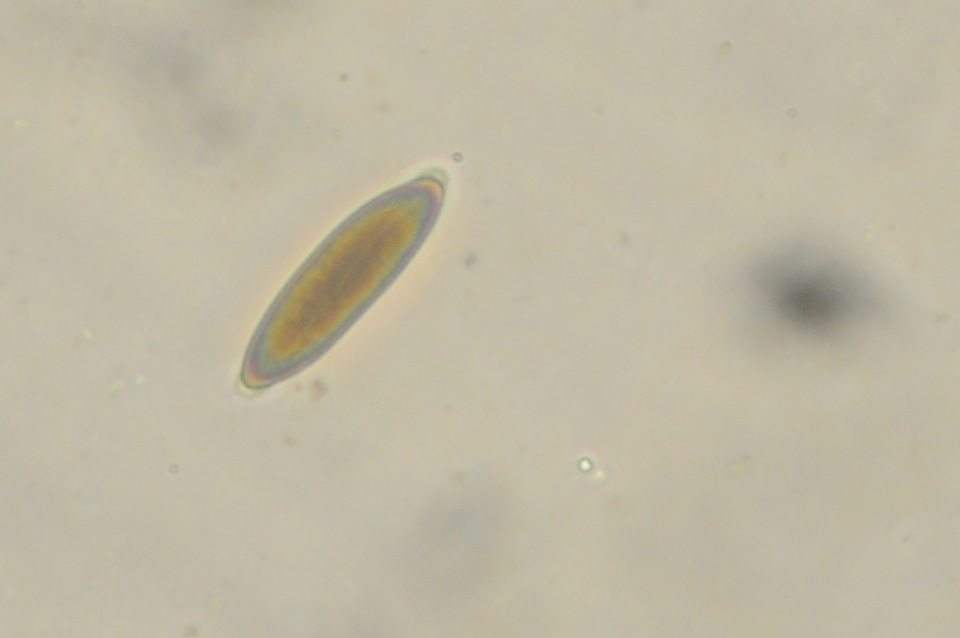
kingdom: Fungi
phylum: Ascomycota
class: Sordariomycetes
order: Xylariales
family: Xylariaceae
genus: Rosellinia
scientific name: Rosellinia marcucciana
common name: måtteløs kulkaviar
